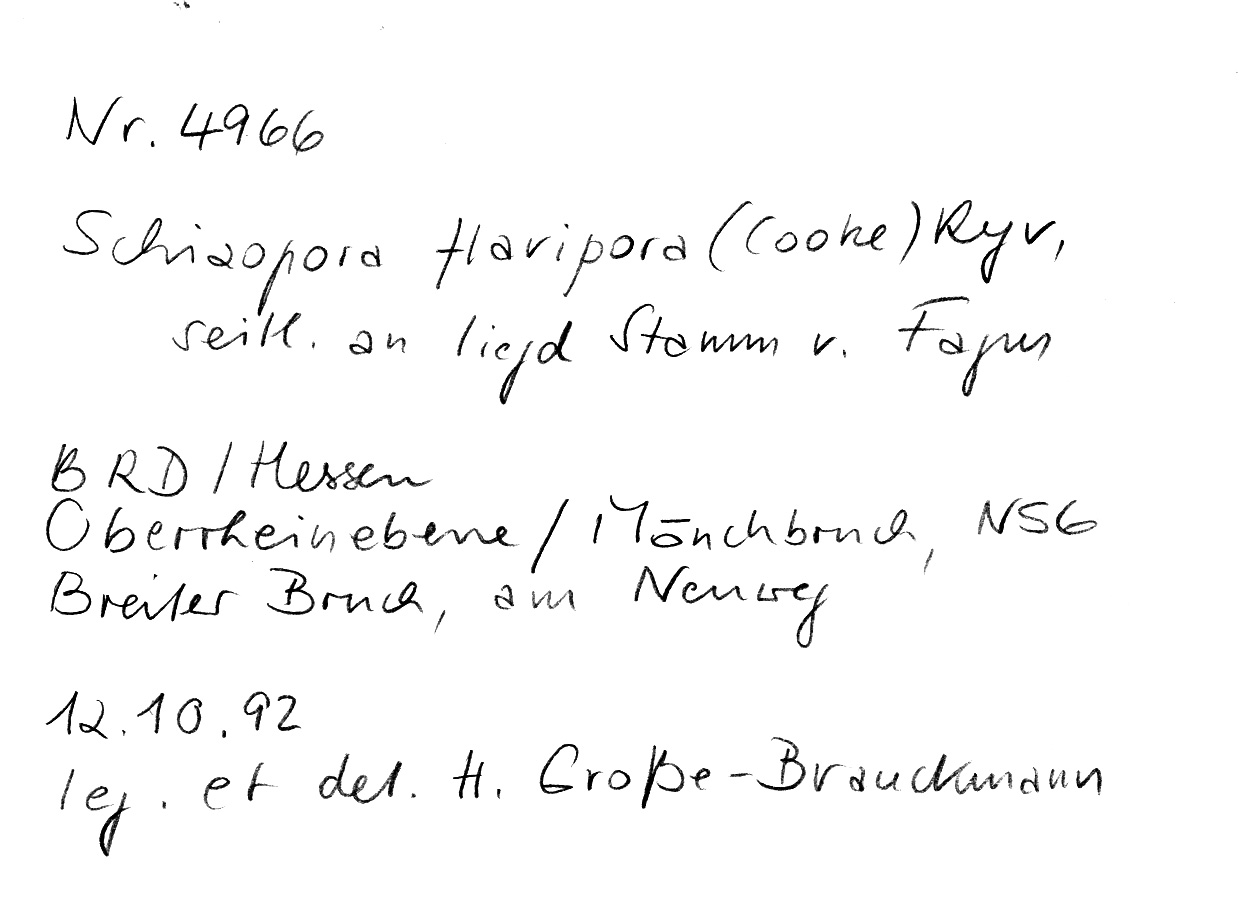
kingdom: Fungi
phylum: Basidiomycota
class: Agaricomycetes
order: Hymenochaetales
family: Schizoporaceae
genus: Xylodon
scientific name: Xylodon flaviporus
